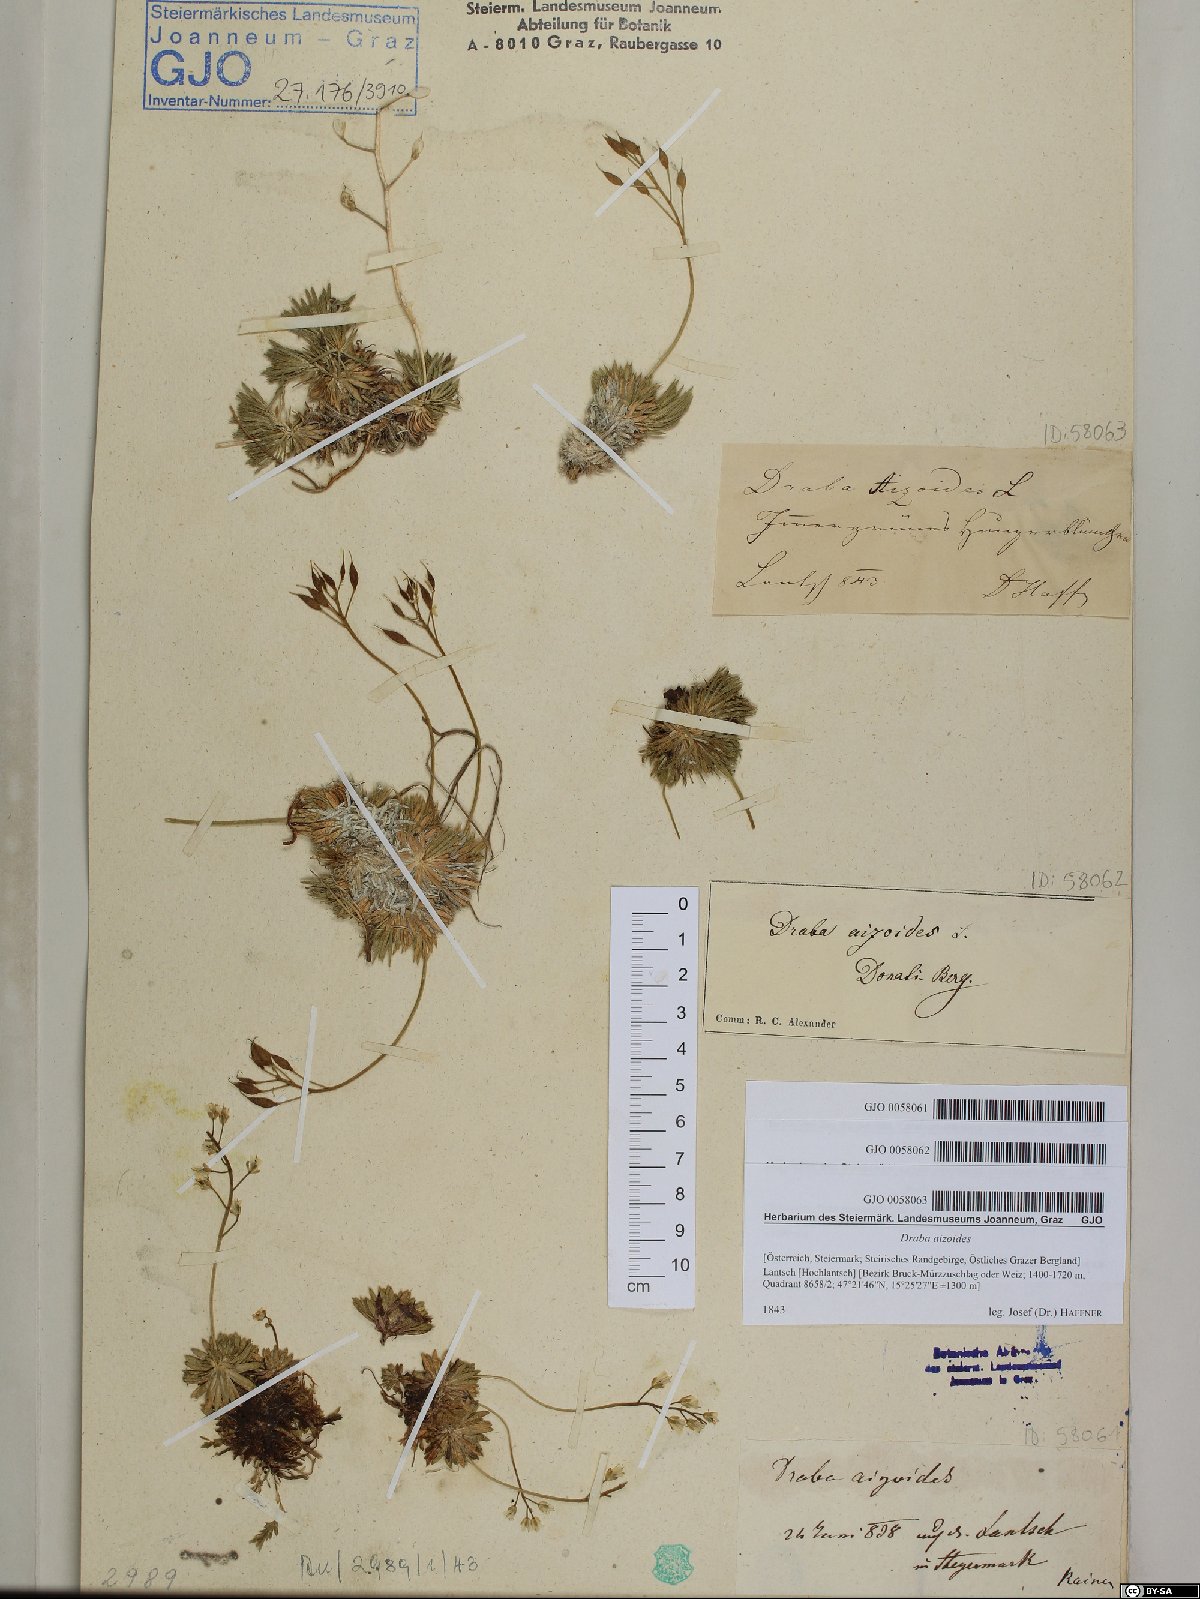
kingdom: Plantae
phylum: Tracheophyta
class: Magnoliopsida
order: Brassicales
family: Brassicaceae
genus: Draba
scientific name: Draba aizoides
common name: Yellow whitlowgrass
